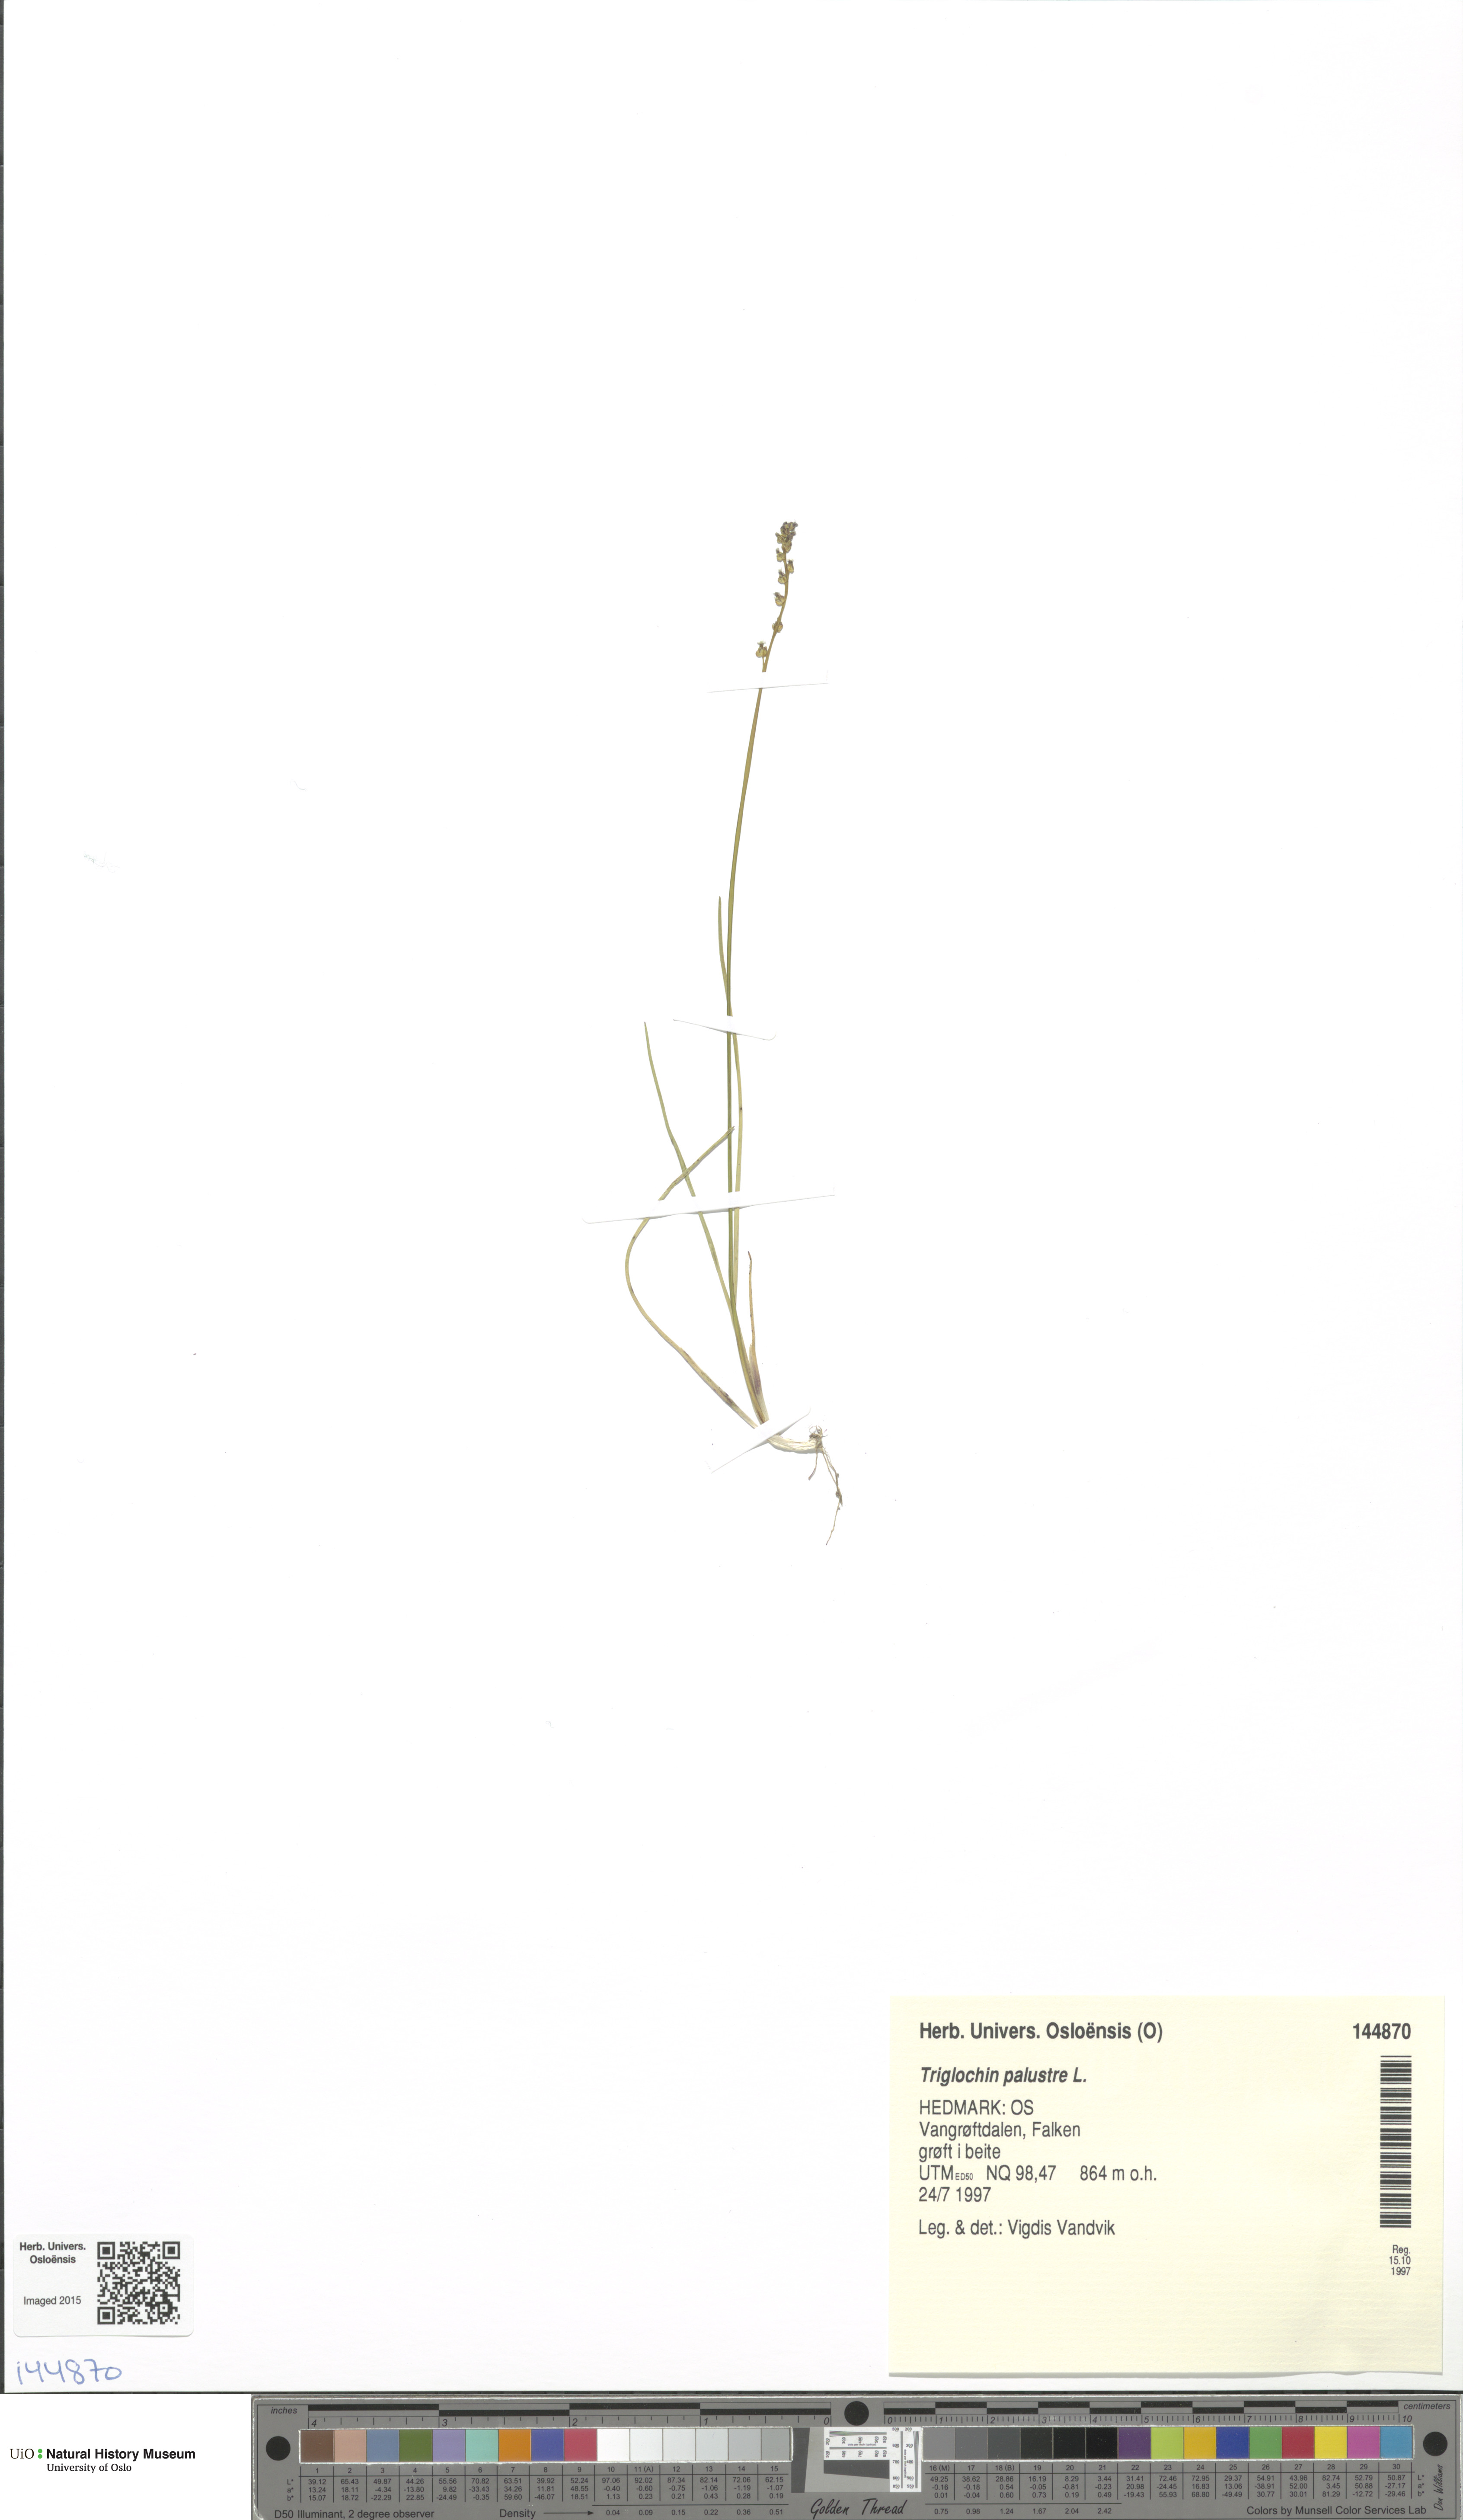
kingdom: Plantae
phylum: Tracheophyta
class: Liliopsida
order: Alismatales
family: Juncaginaceae
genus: Triglochin
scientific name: Triglochin palustris
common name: Marsh arrowgrass
